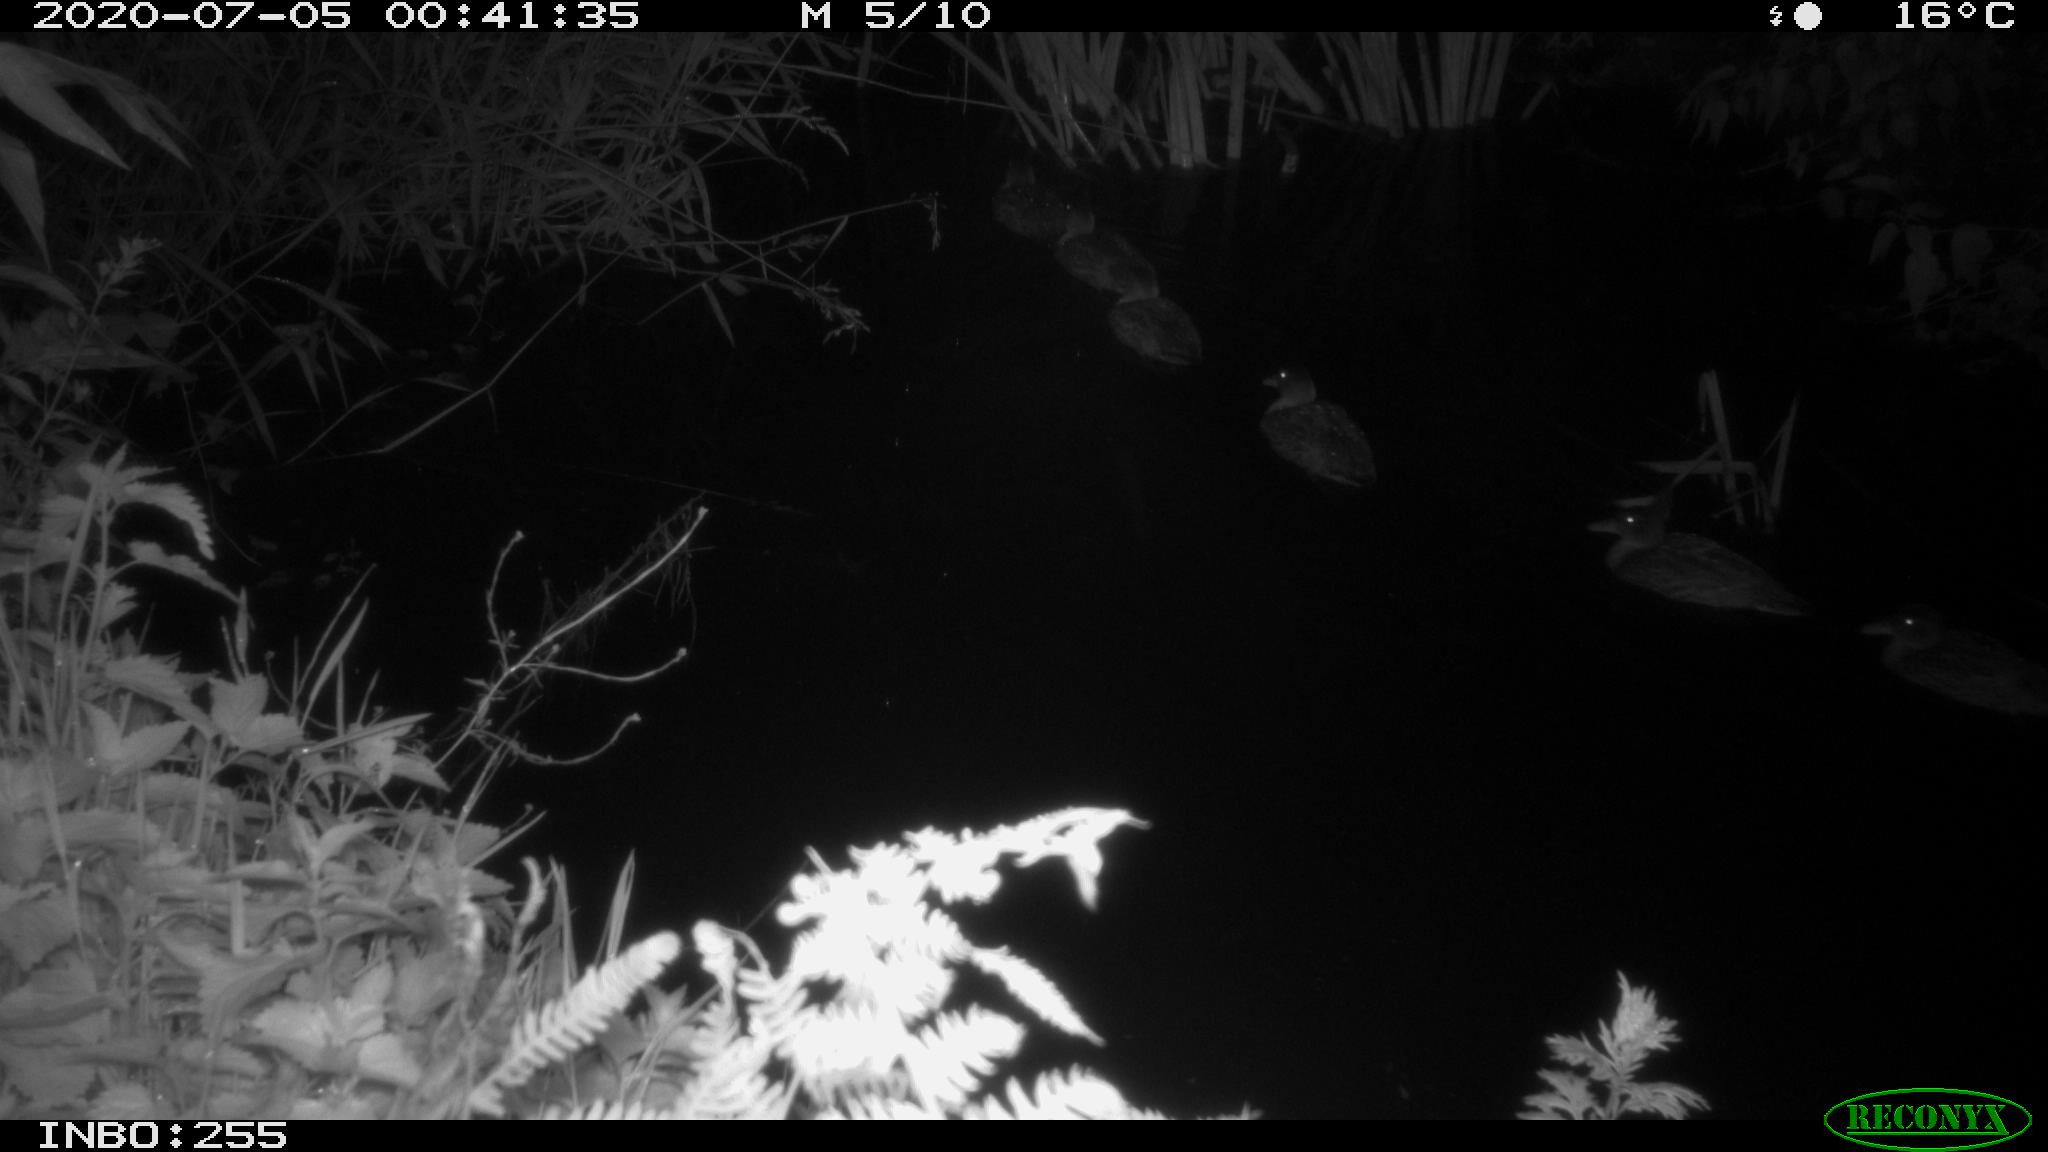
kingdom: Animalia
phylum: Chordata
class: Aves
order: Anseriformes
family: Anatidae
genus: Anas
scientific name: Anas platyrhynchos
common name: Mallard
